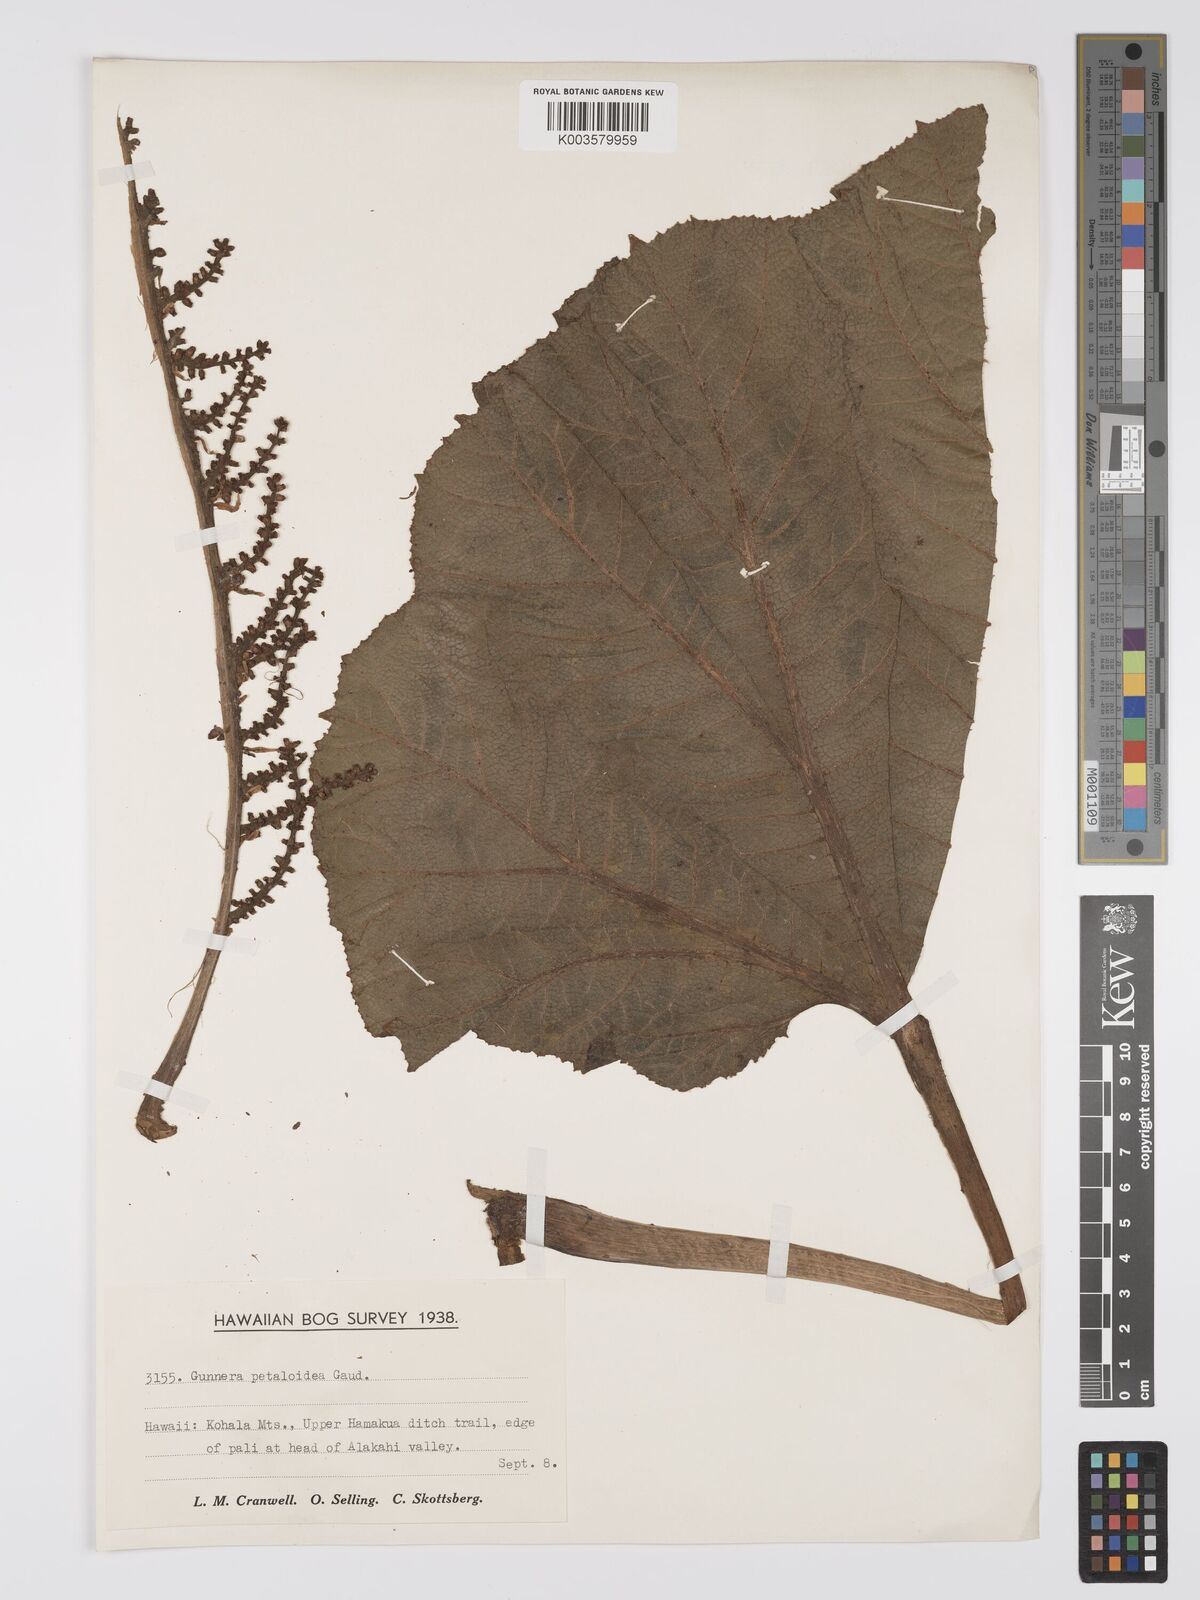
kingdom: Plantae
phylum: Tracheophyta
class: Magnoliopsida
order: Gunnerales
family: Gunneraceae
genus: Gunnera
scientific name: Gunnera petaloidea
